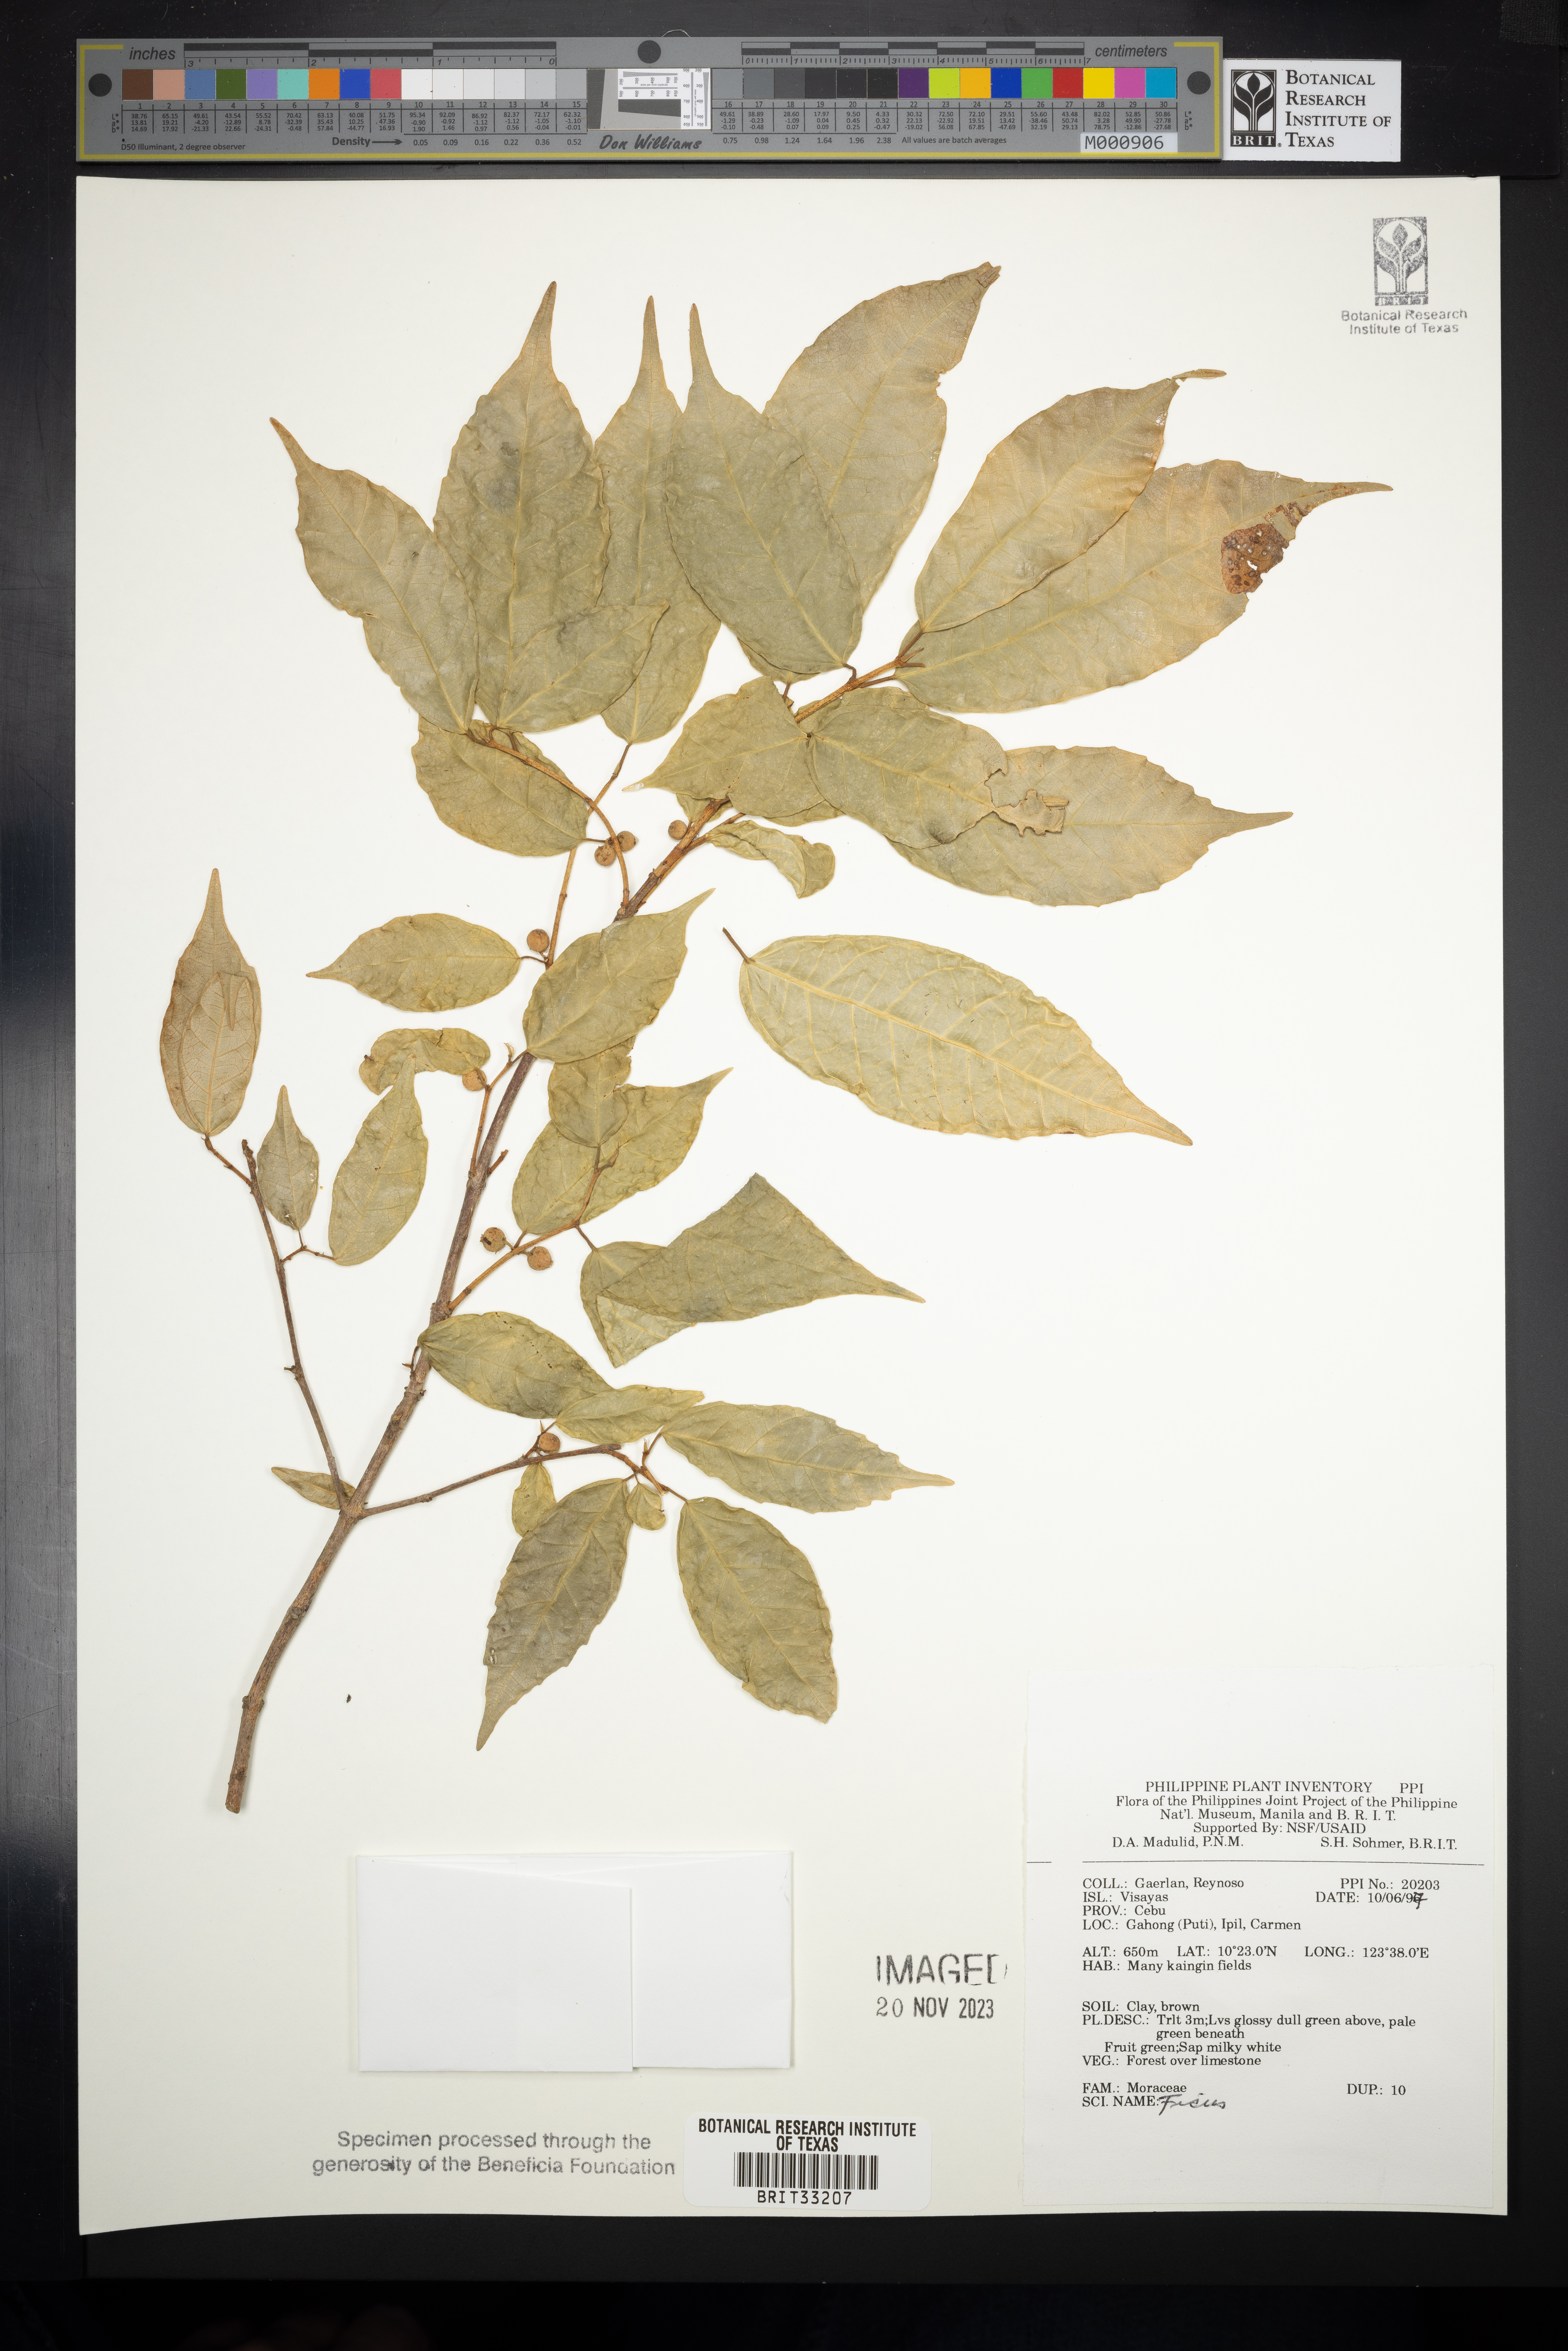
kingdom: Plantae
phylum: Tracheophyta
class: Magnoliopsida
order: Rosales
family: Moraceae
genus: Ficus
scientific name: Ficus
